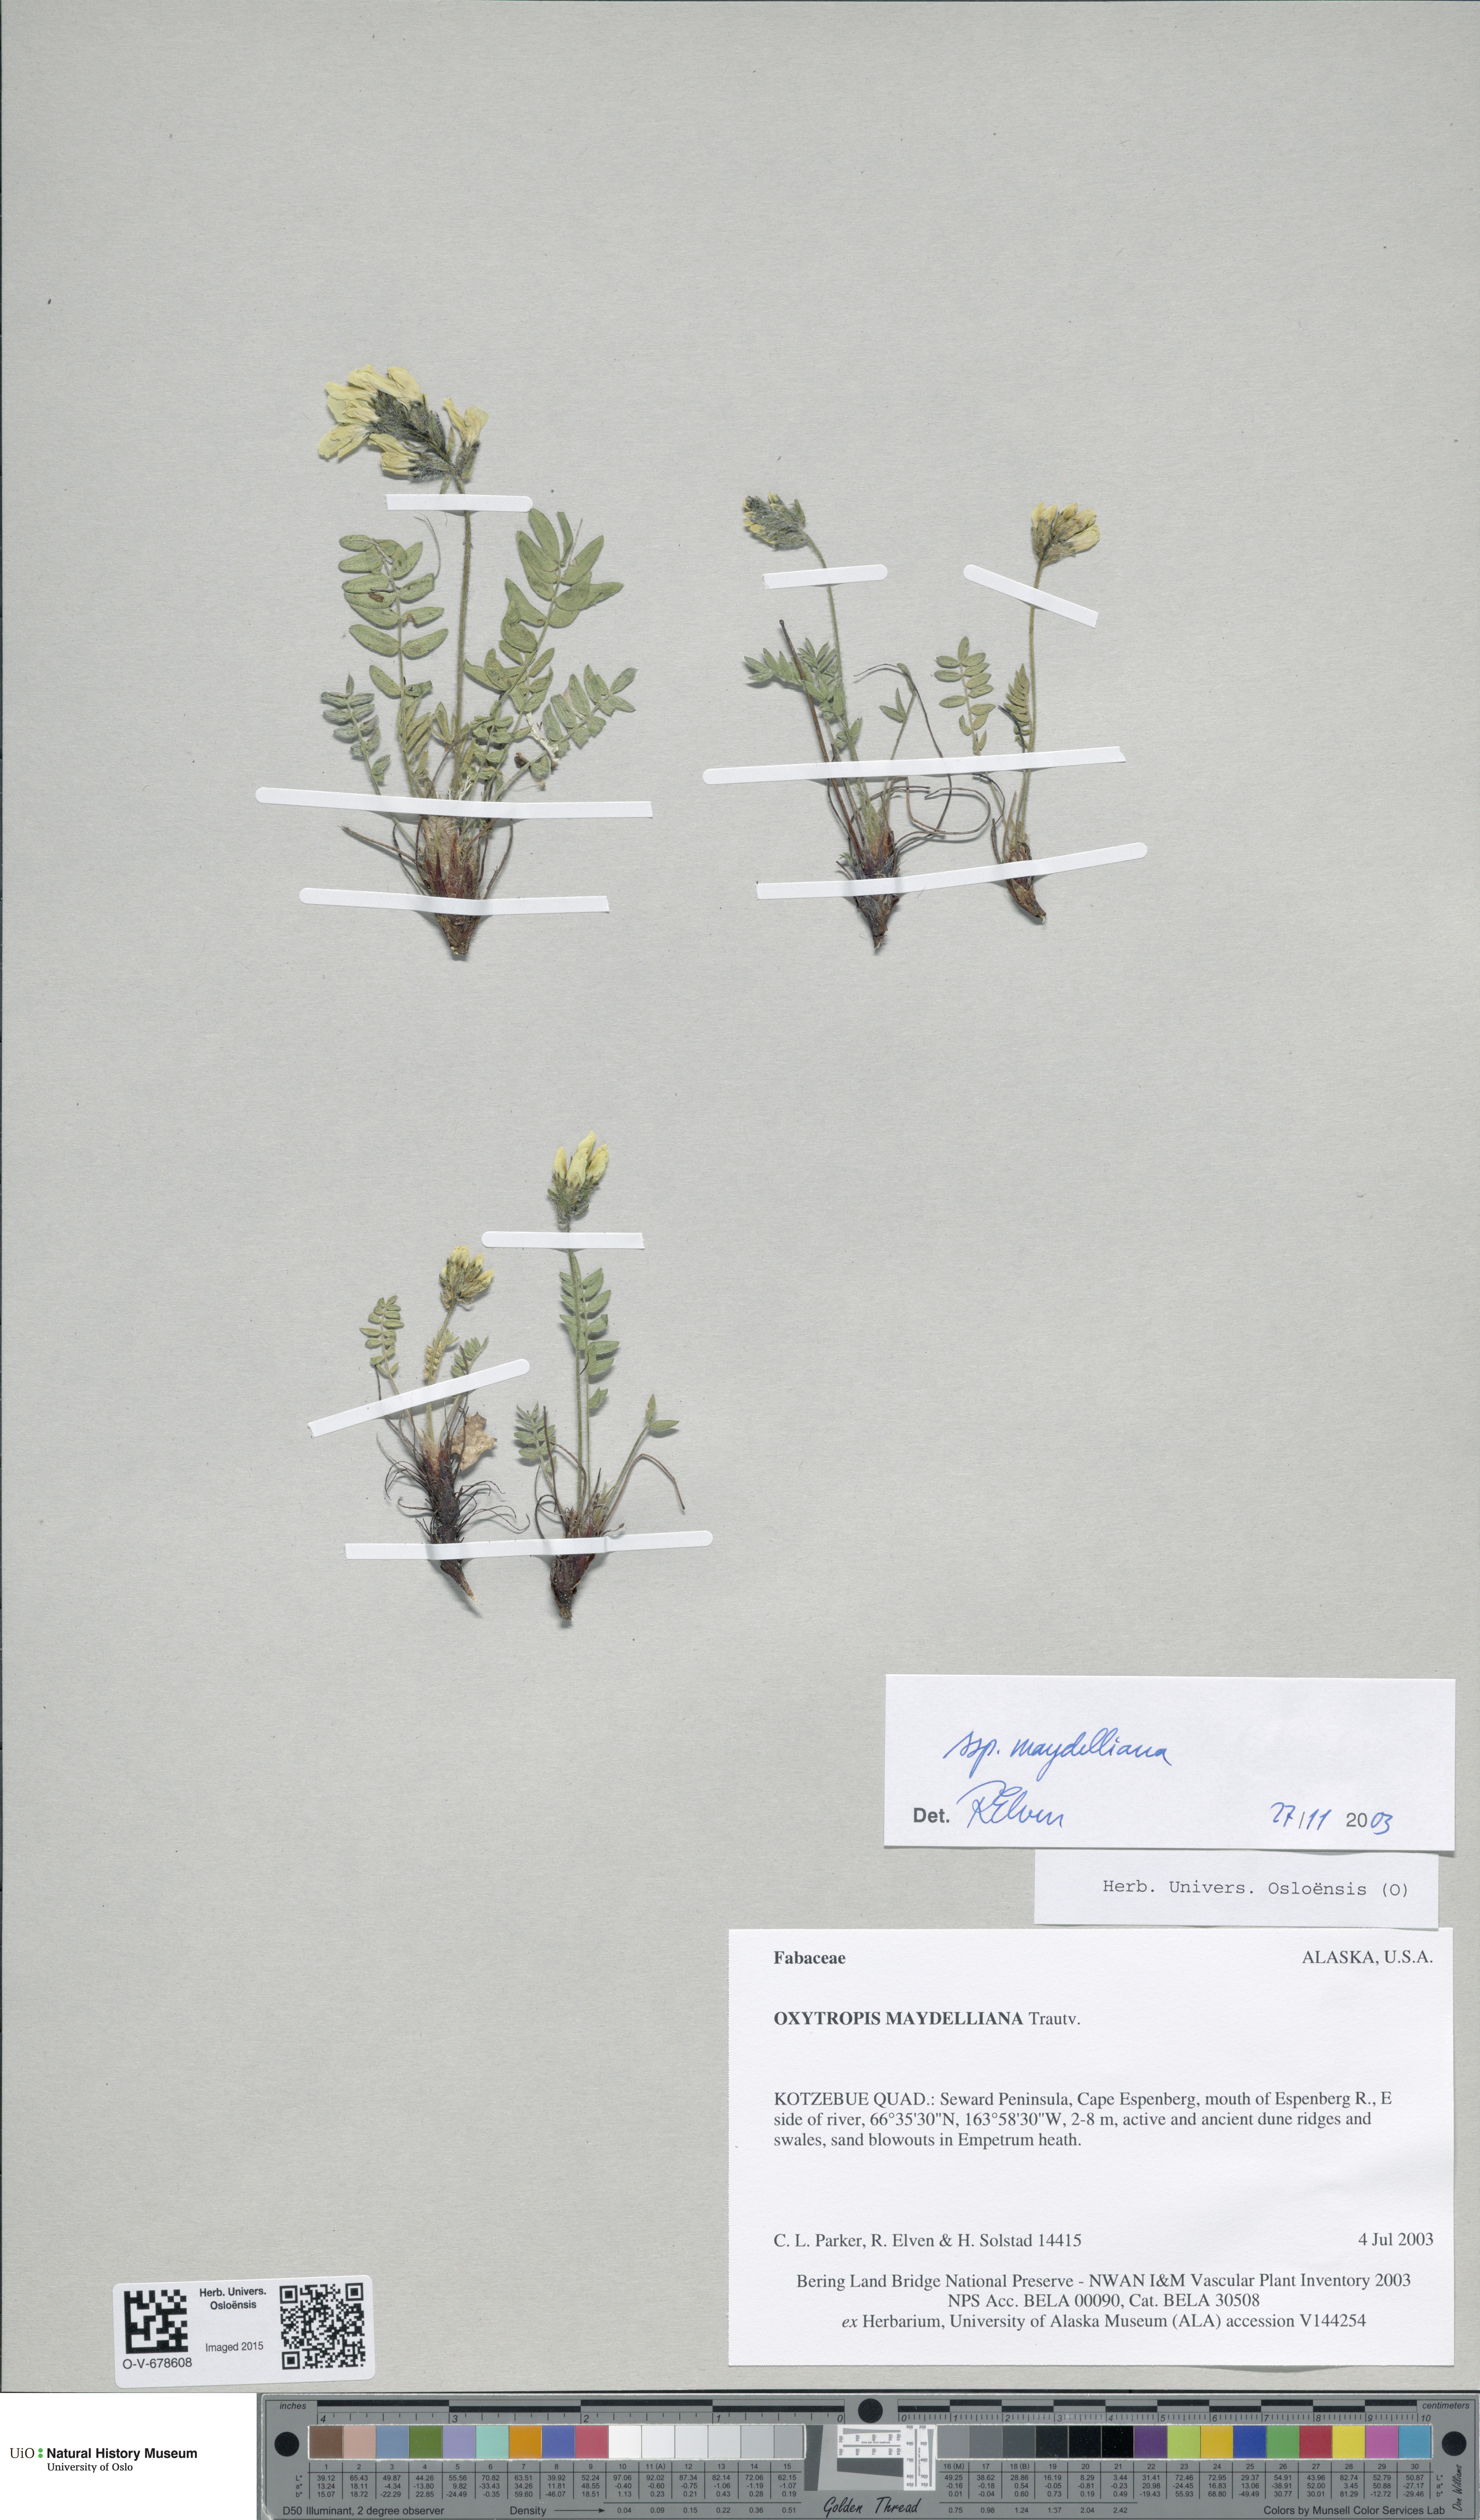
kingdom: Plantae
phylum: Tracheophyta
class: Magnoliopsida
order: Fabales
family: Fabaceae
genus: Oxytropis
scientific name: Oxytropis maydelliana
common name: Maydell's locoweed
